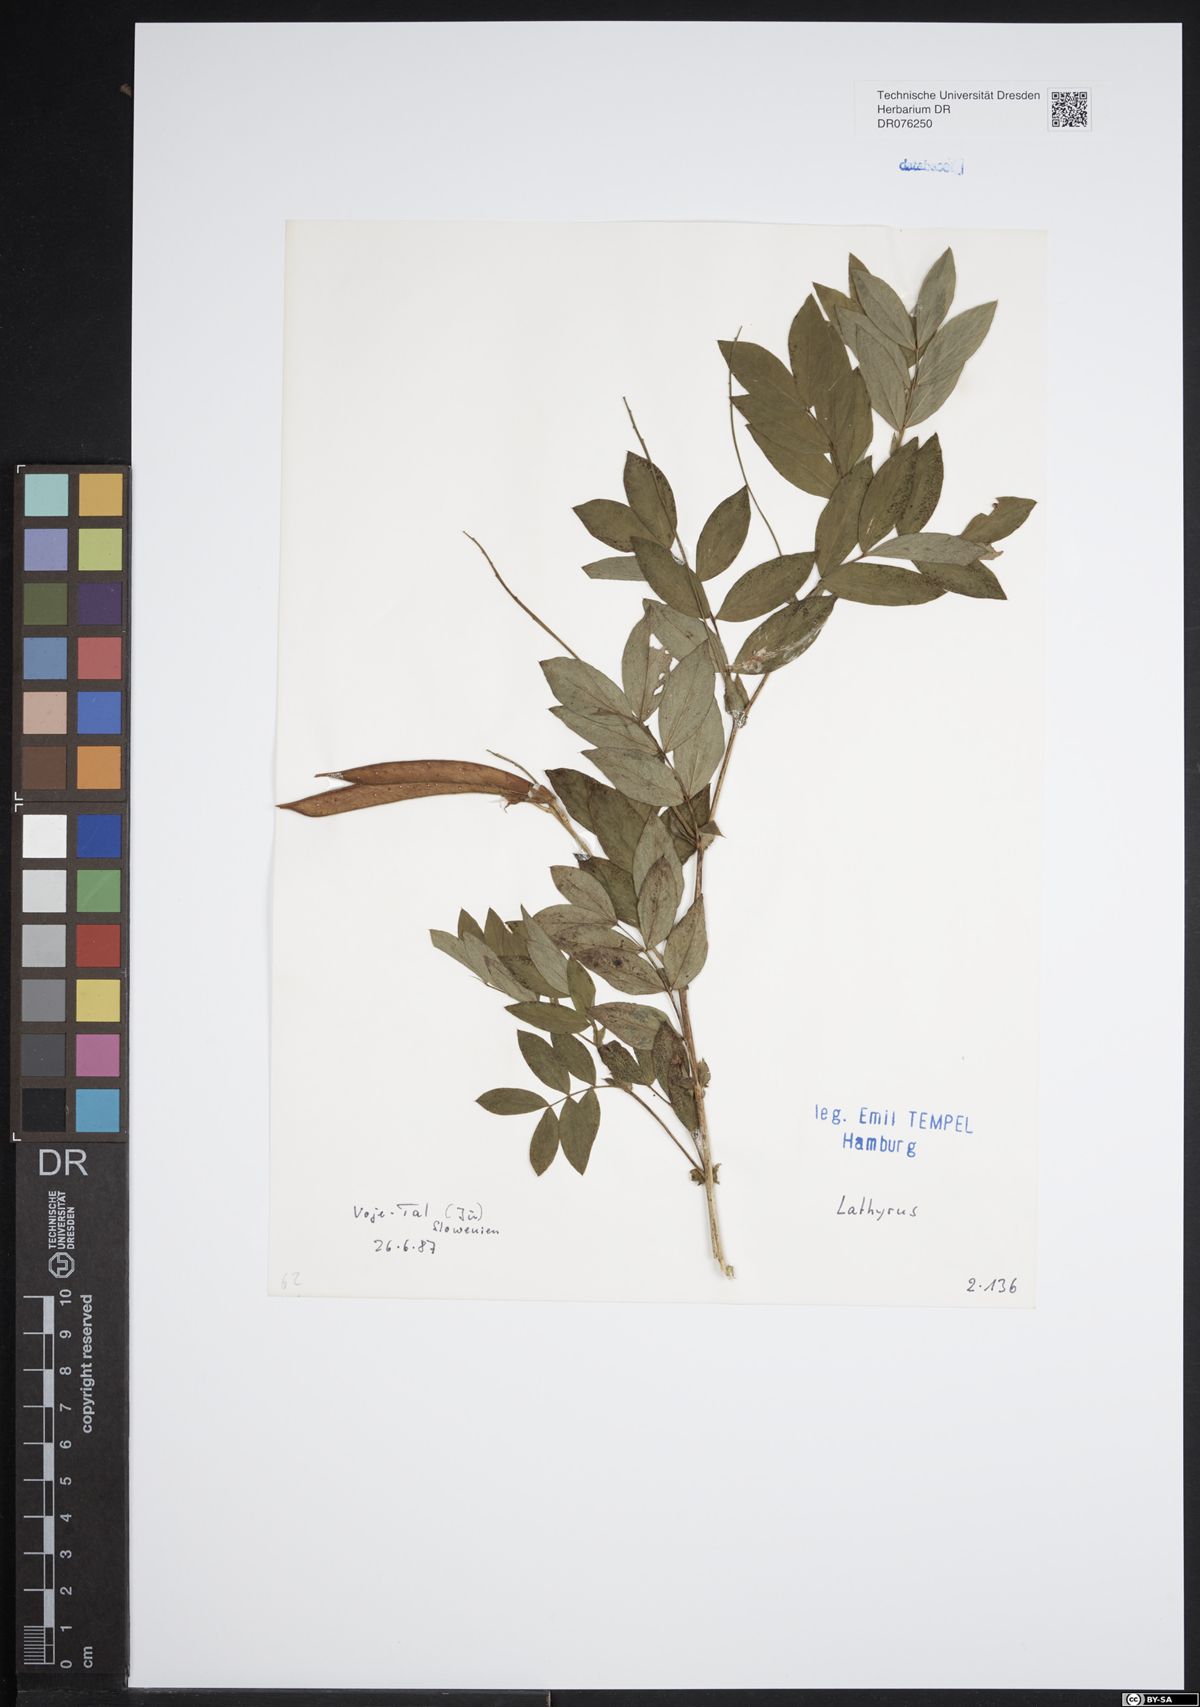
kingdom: Plantae
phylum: Tracheophyta
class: Magnoliopsida
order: Fabales
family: Fabaceae
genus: Lathyrus
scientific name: Lathyrus
